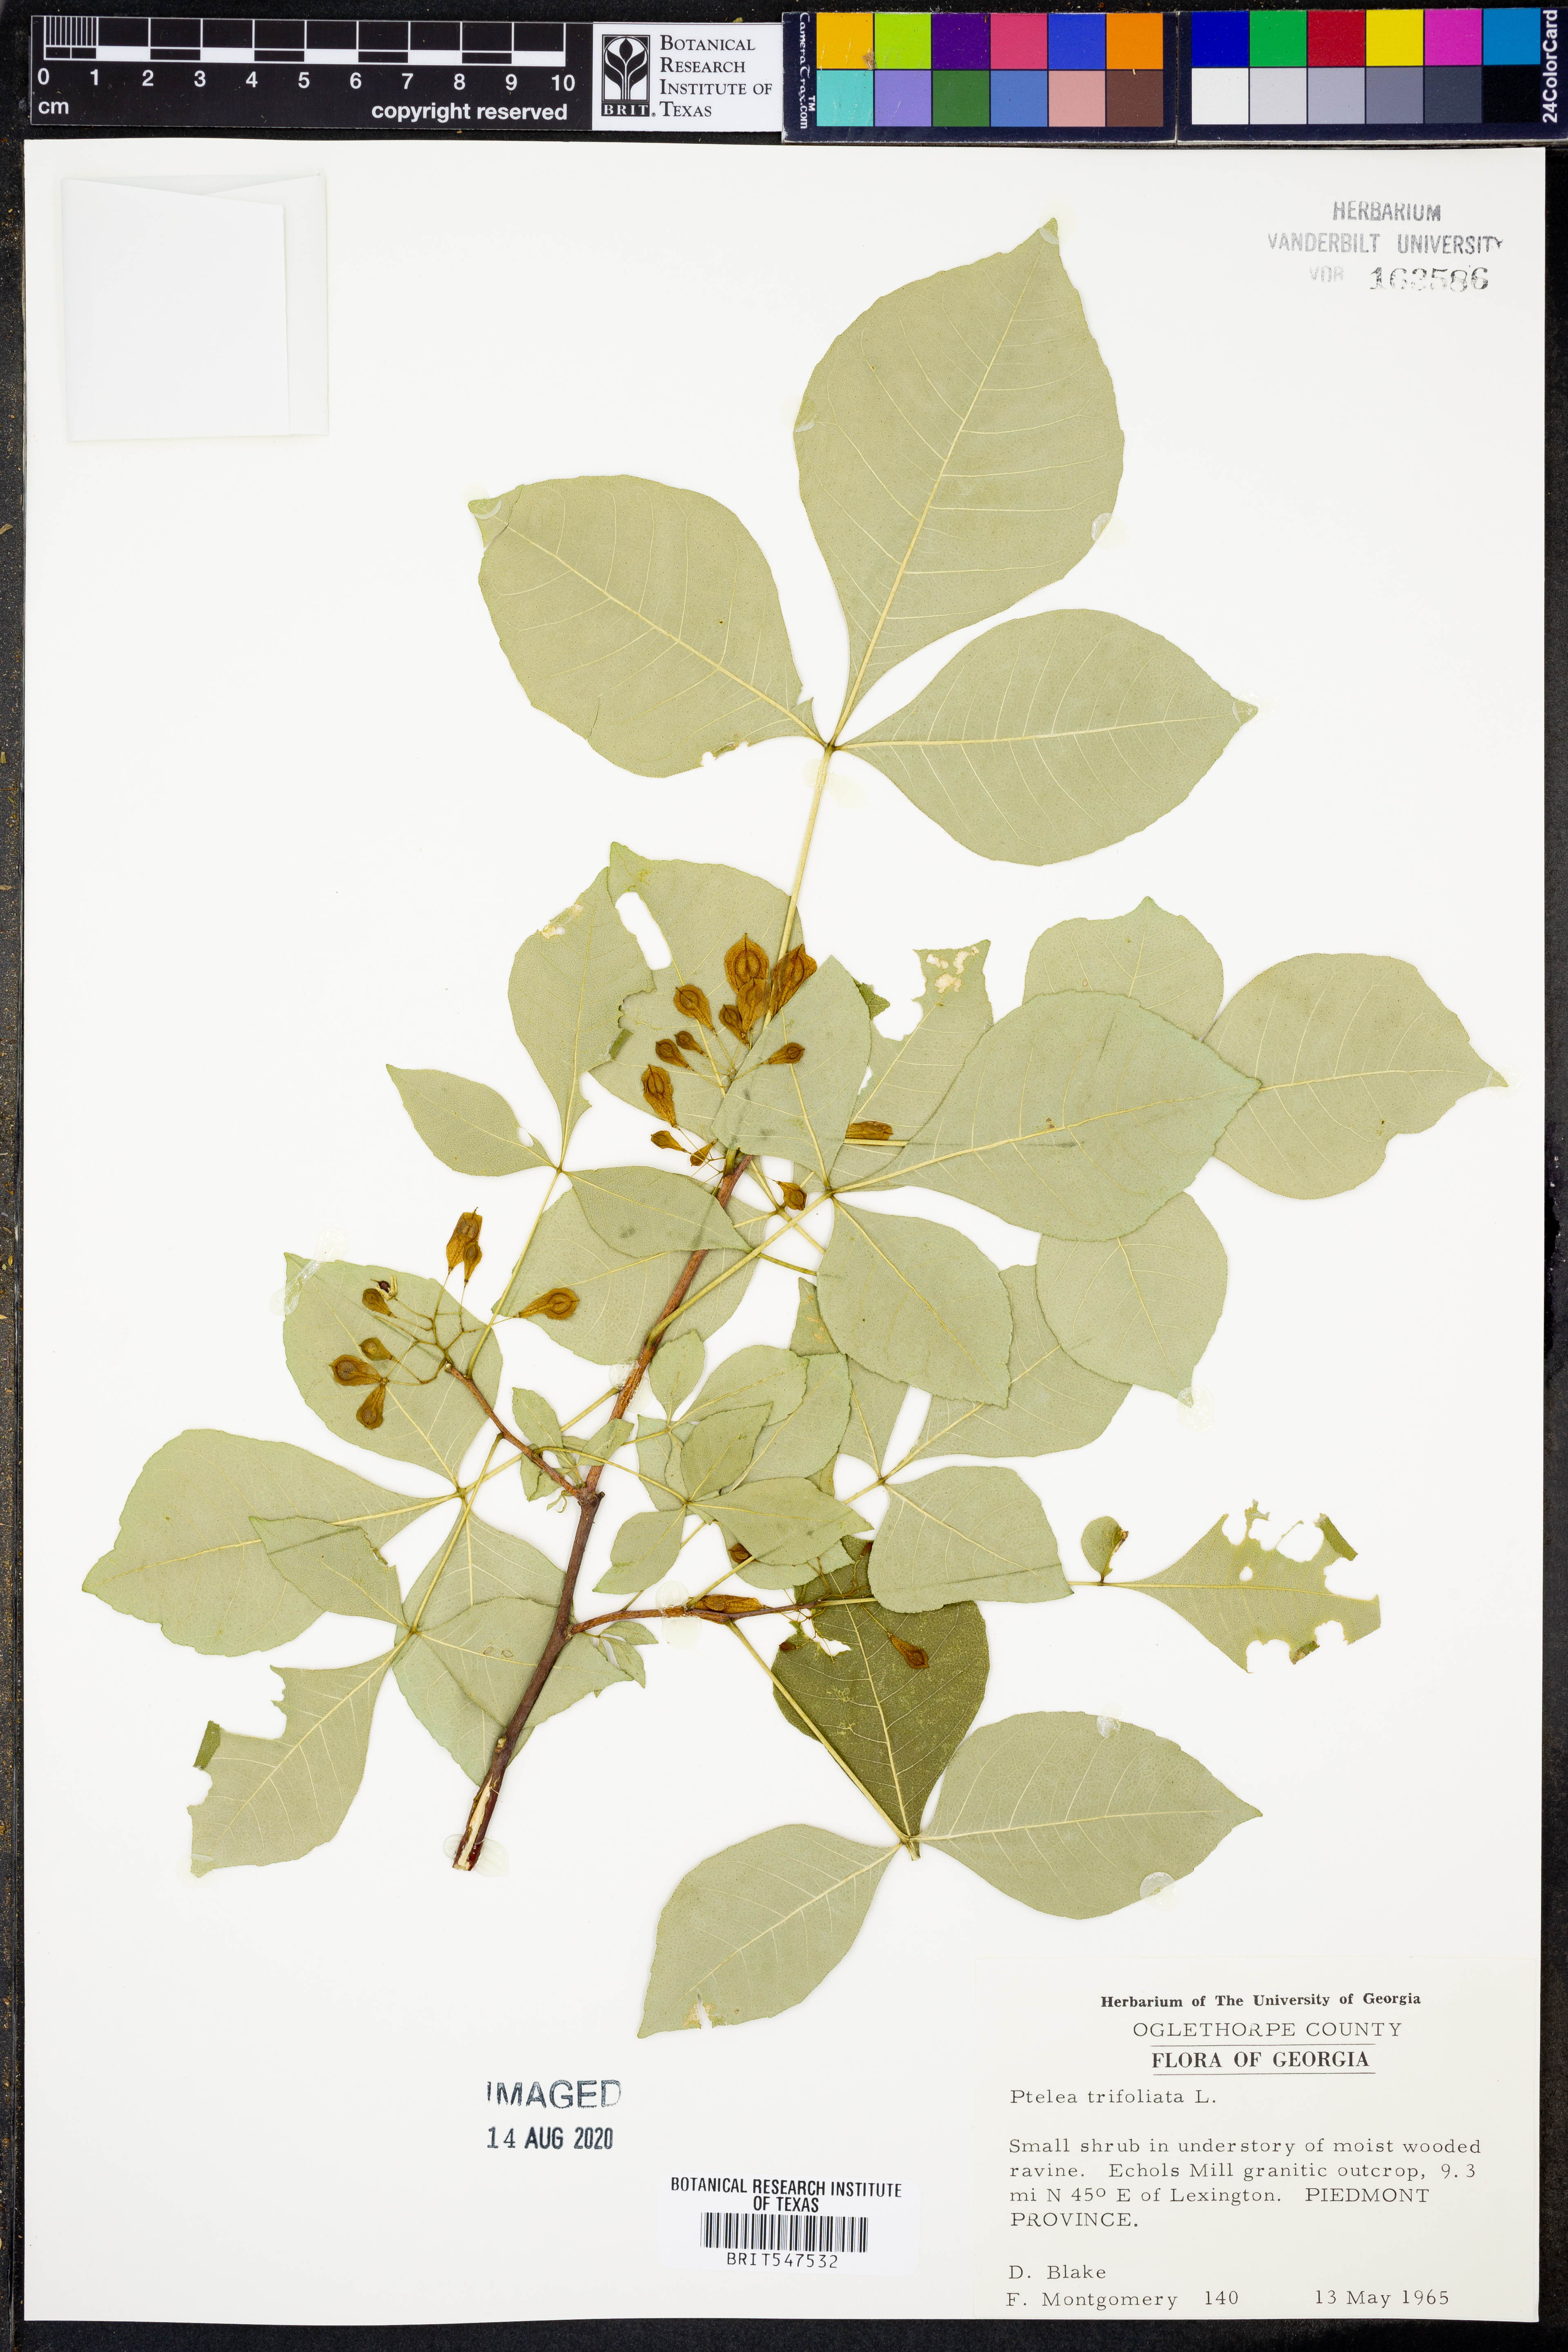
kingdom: Plantae
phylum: Tracheophyta
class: Magnoliopsida
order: Sapindales
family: Rutaceae
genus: Ptelea
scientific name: Ptelea trifoliata
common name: Common hop-tree
